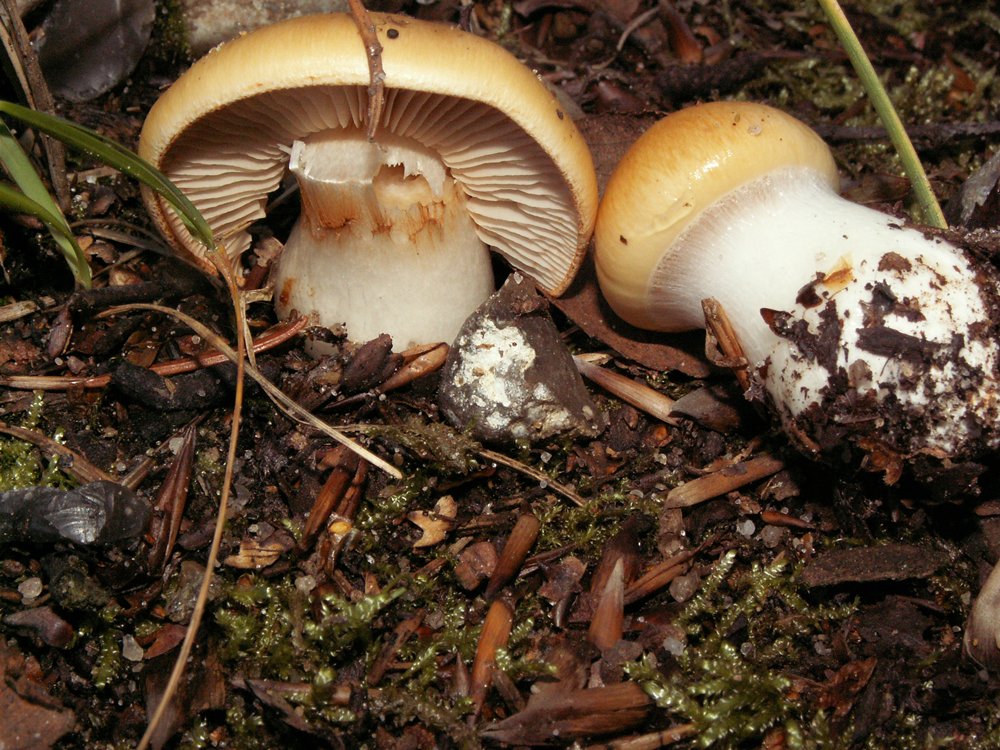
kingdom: Fungi
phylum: Basidiomycota
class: Agaricomycetes
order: Agaricales
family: Cortinariaceae
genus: Thaxterogaster
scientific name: Thaxterogaster emollitus
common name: besk slørhat
